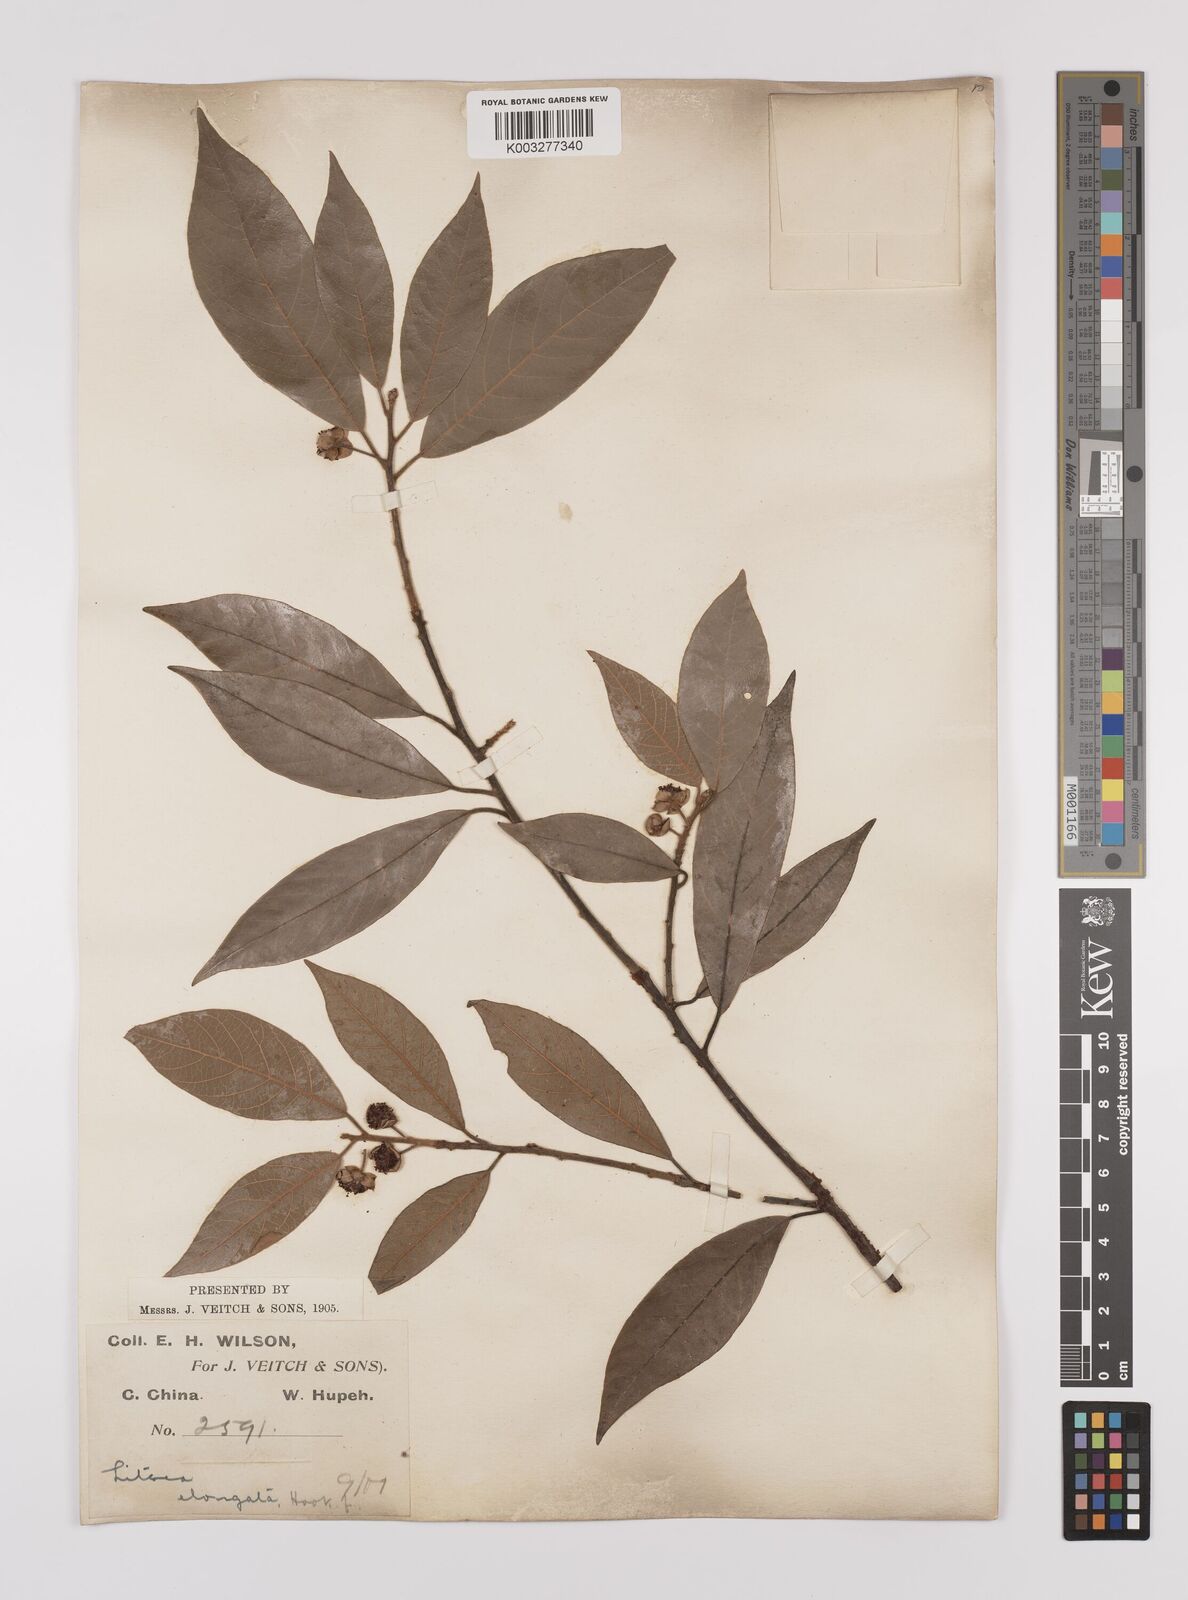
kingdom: Plantae
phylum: Tracheophyta
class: Magnoliopsida
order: Laurales
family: Lauraceae
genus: Litsea
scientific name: Litsea elongata
